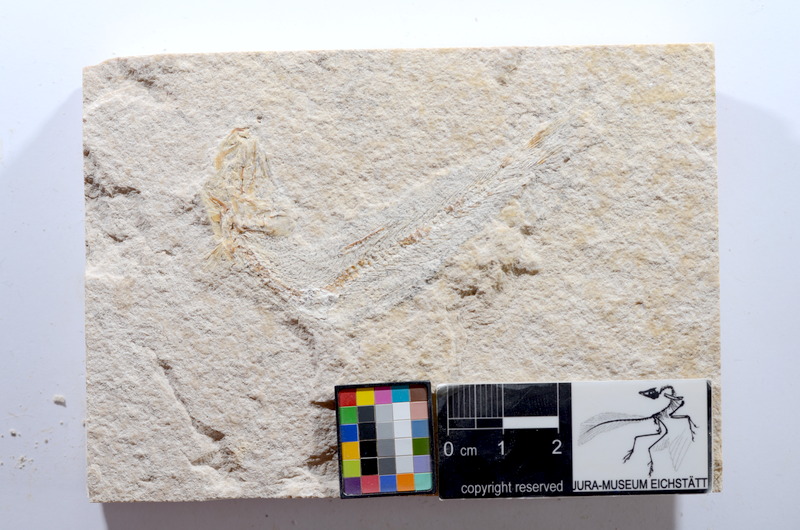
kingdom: Animalia
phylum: Chordata
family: Ascalaboidae
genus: Tharsis
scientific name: Tharsis dubius
